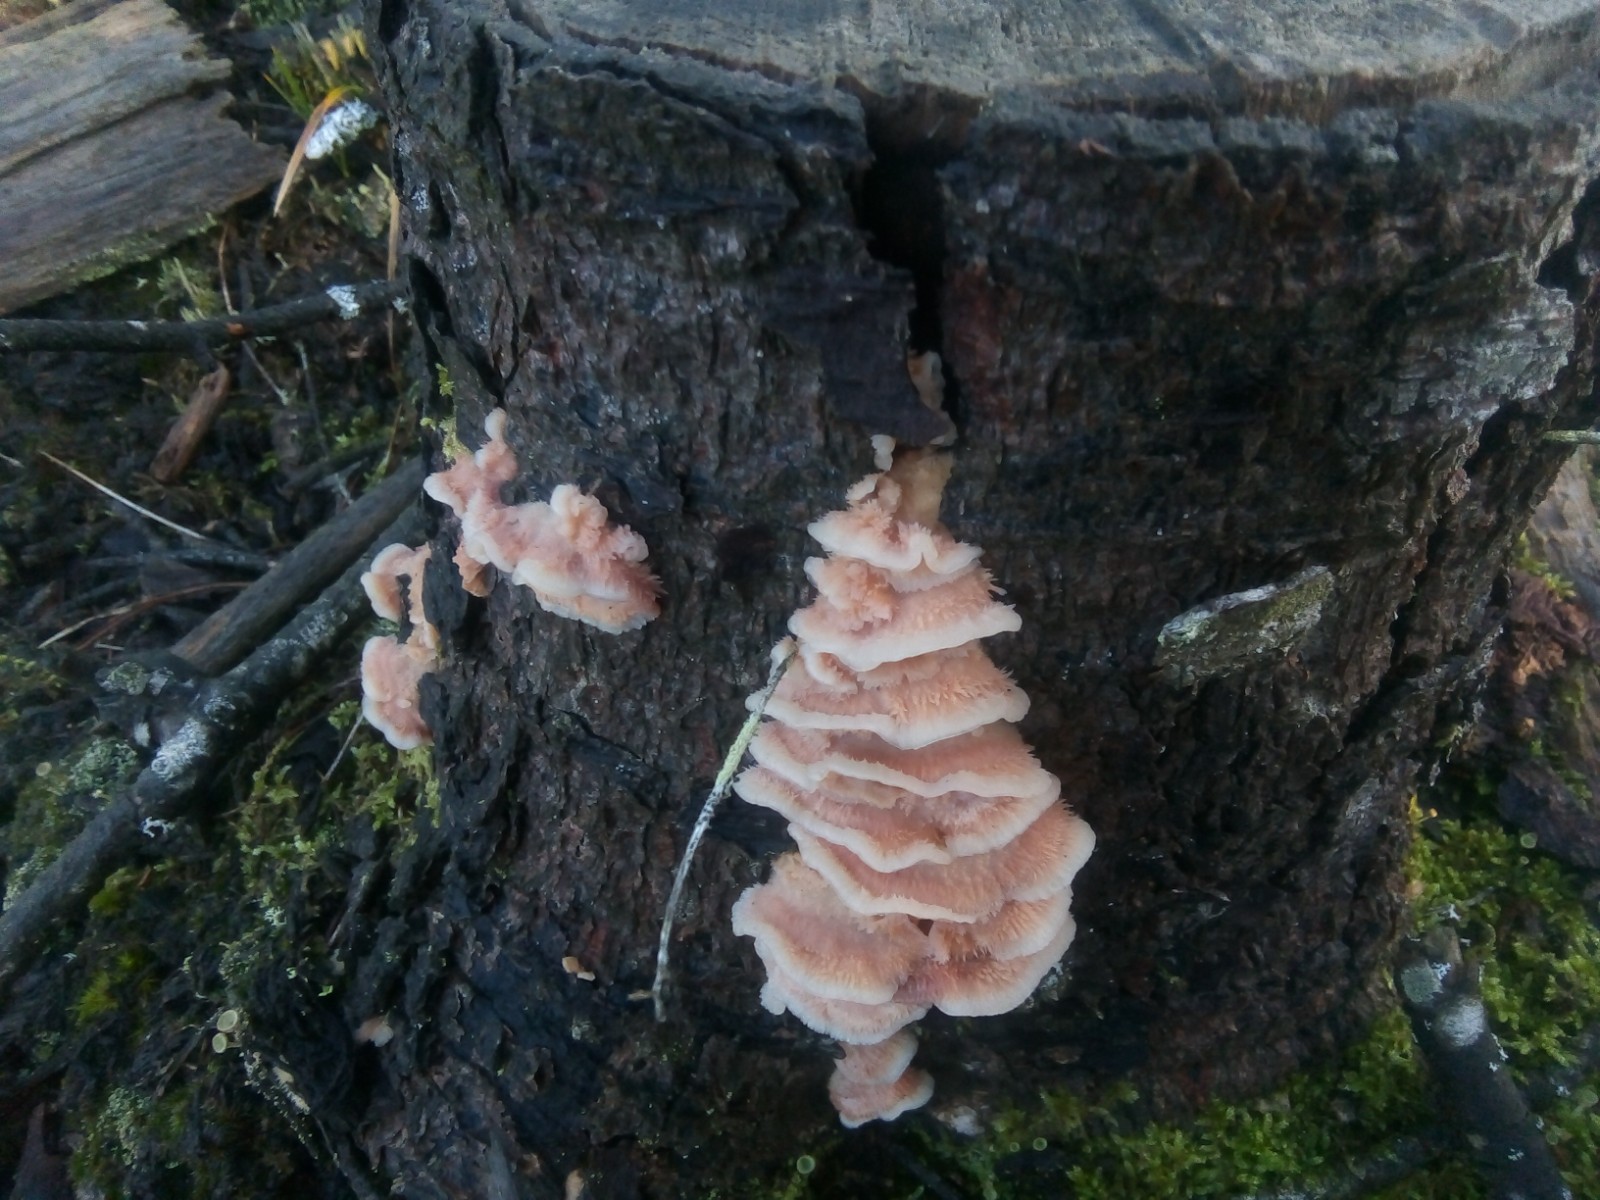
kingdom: Fungi
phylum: Basidiomycota
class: Agaricomycetes
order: Polyporales
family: Meruliaceae
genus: Phlebia
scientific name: Phlebia tremellosa
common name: bævrende åresvamp
